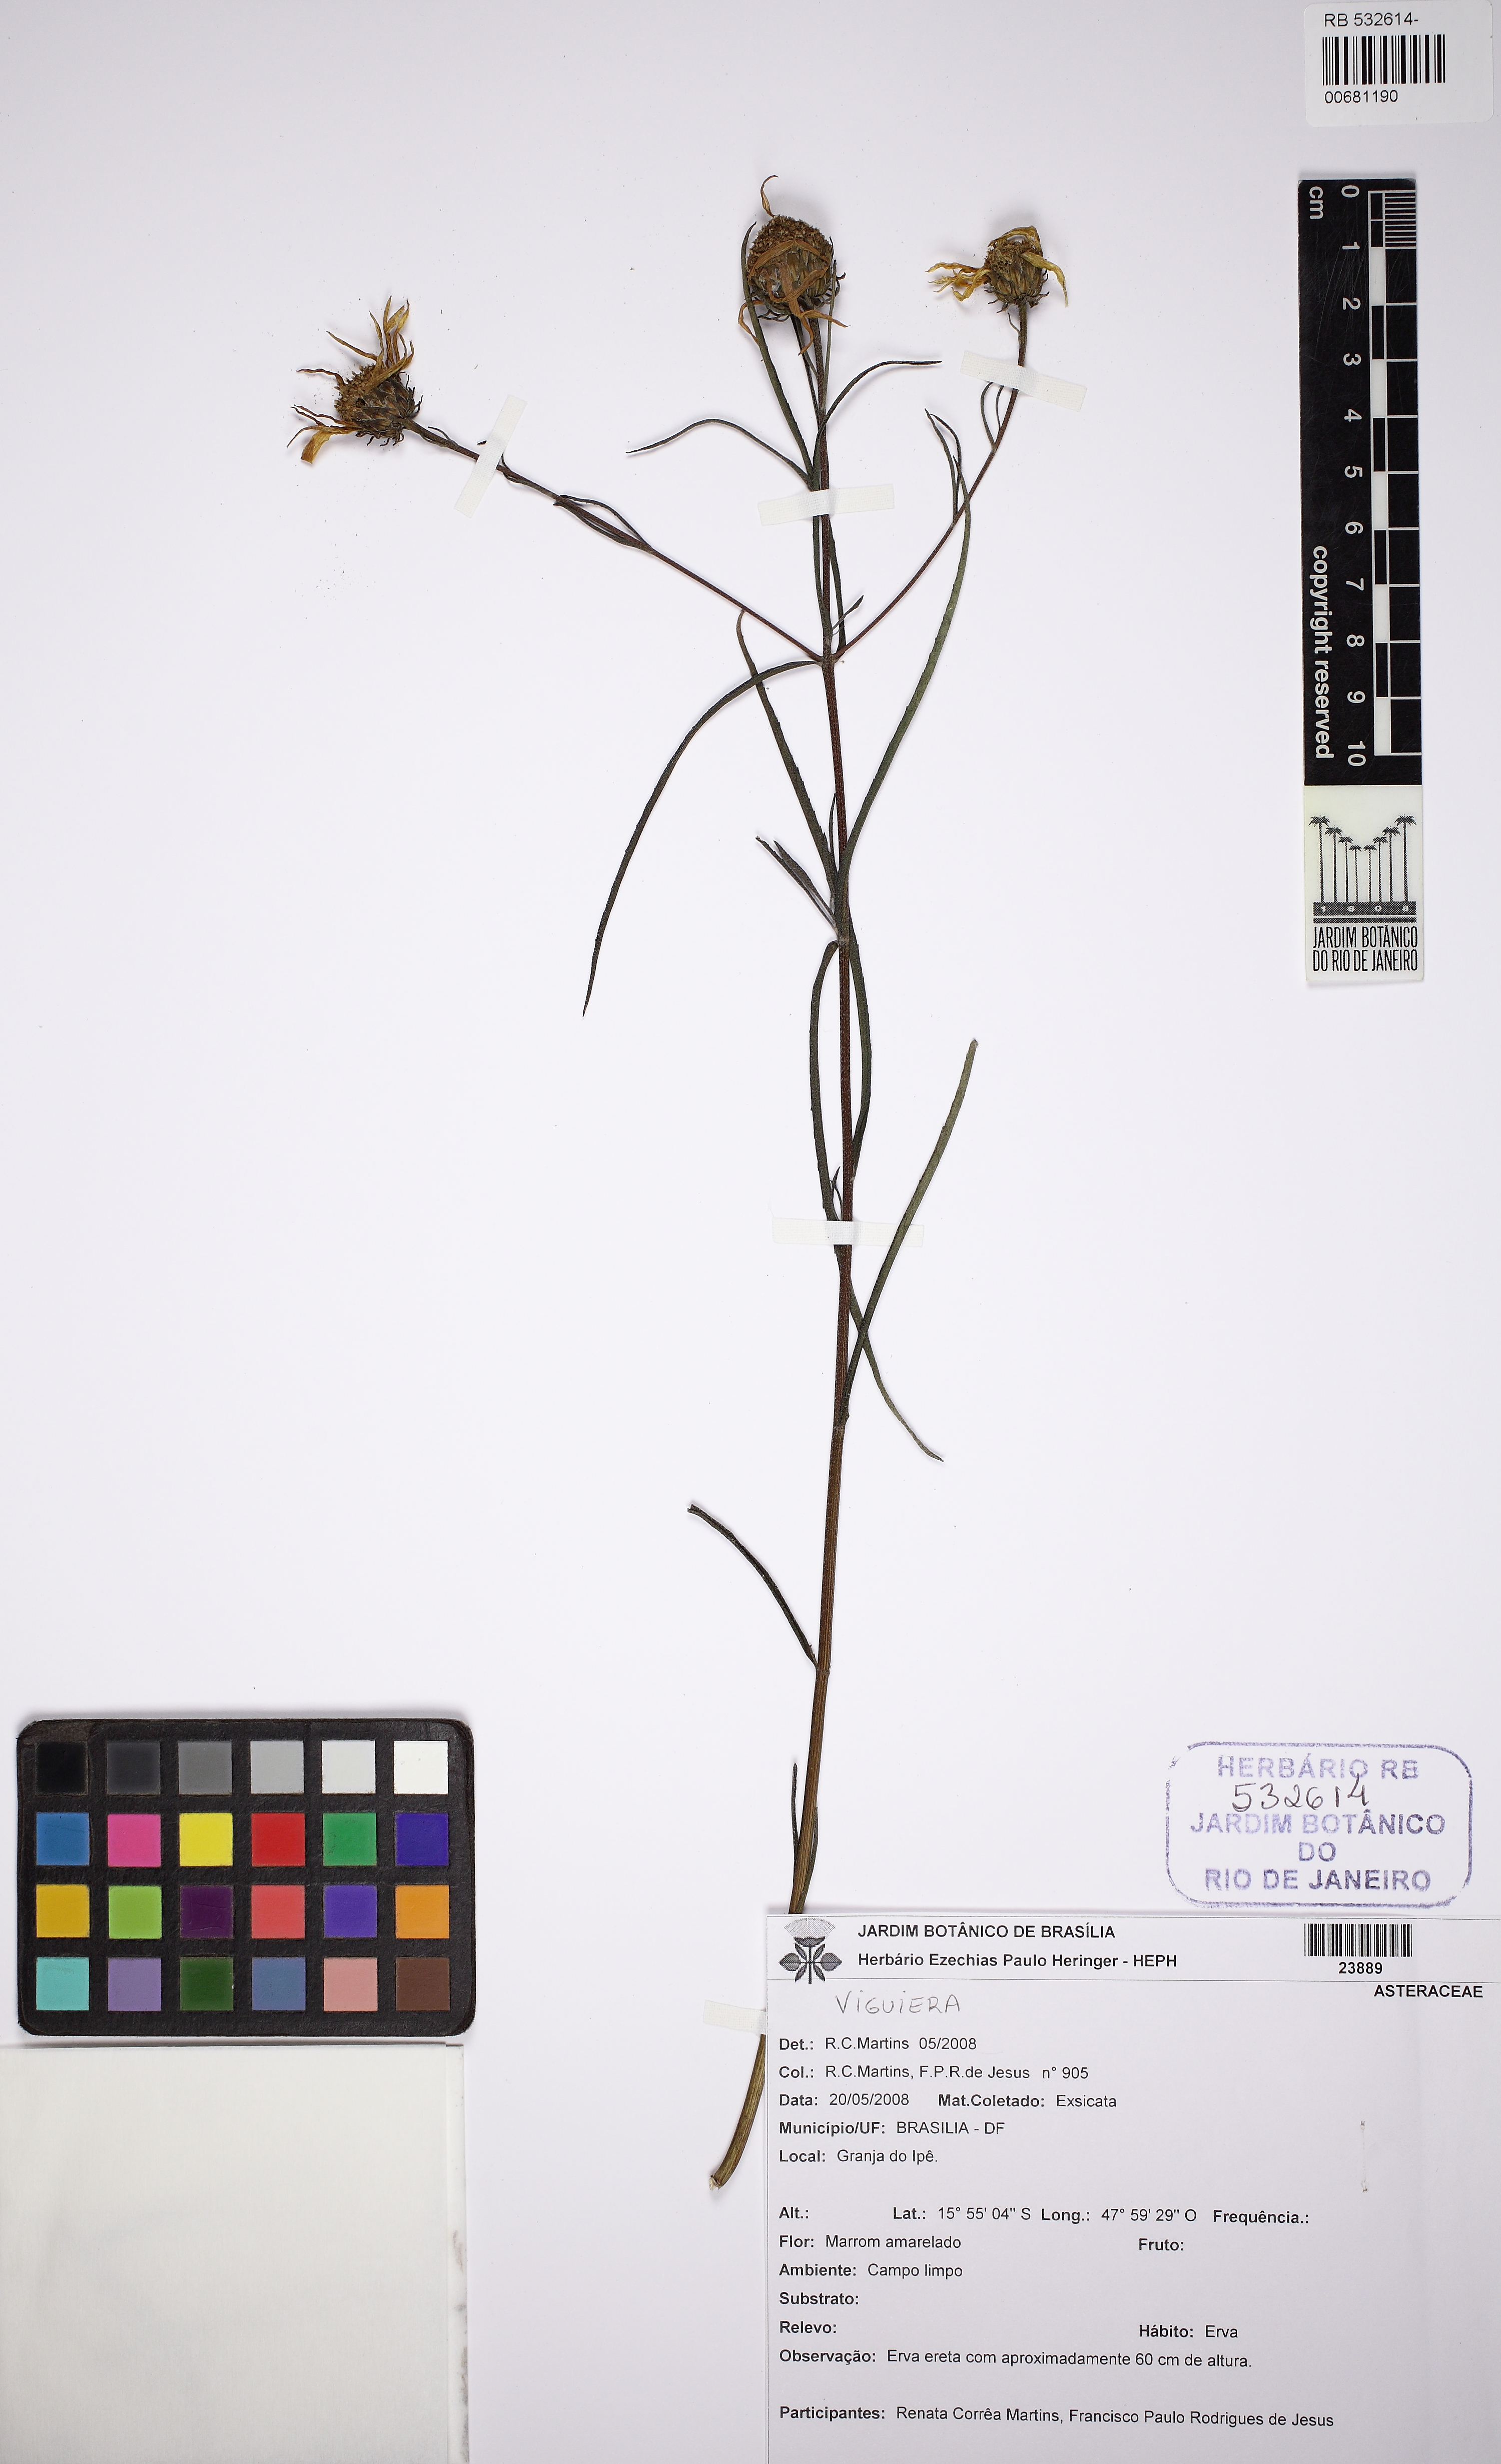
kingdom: Plantae
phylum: Tracheophyta
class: Magnoliopsida
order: Asterales
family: Asteraceae
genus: Viguiera
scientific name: Viguiera
